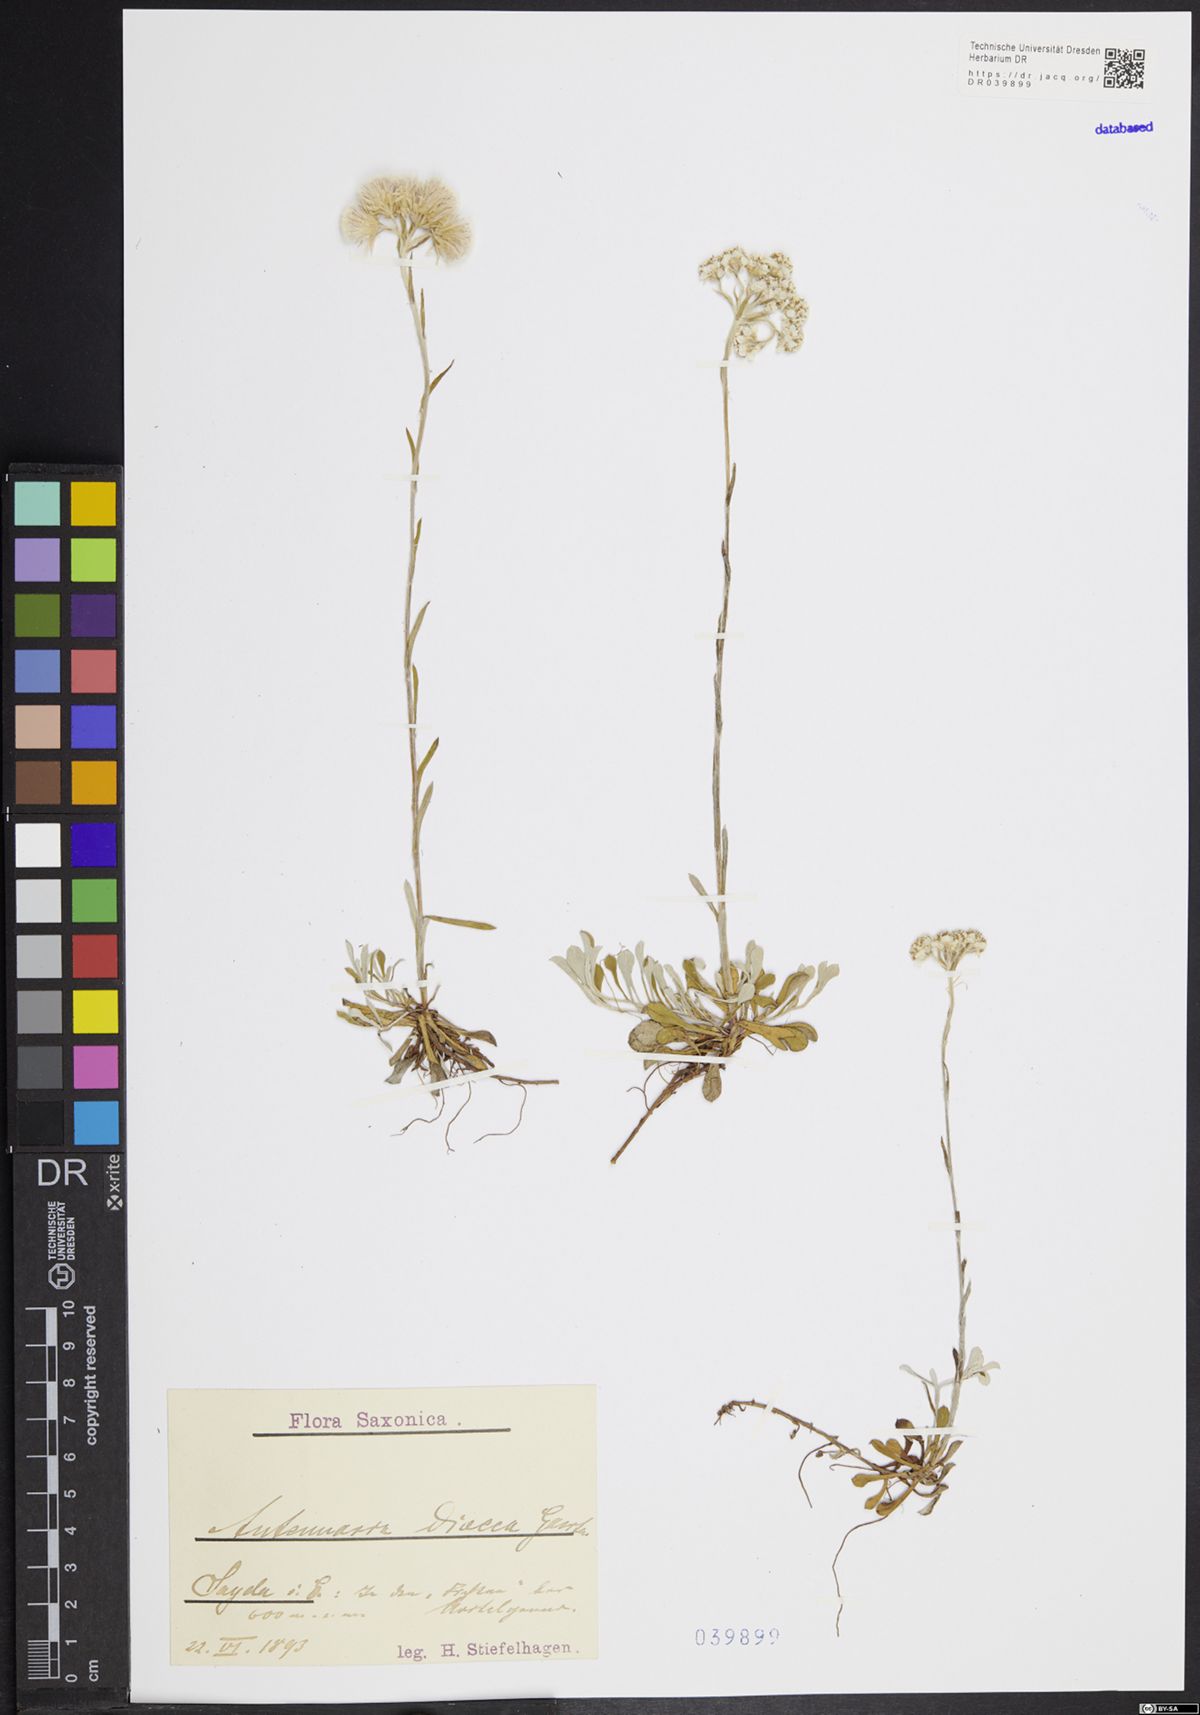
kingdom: Plantae
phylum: Tracheophyta
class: Magnoliopsida
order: Asterales
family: Asteraceae
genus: Antennaria
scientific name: Antennaria dioica
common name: Mountain everlasting
